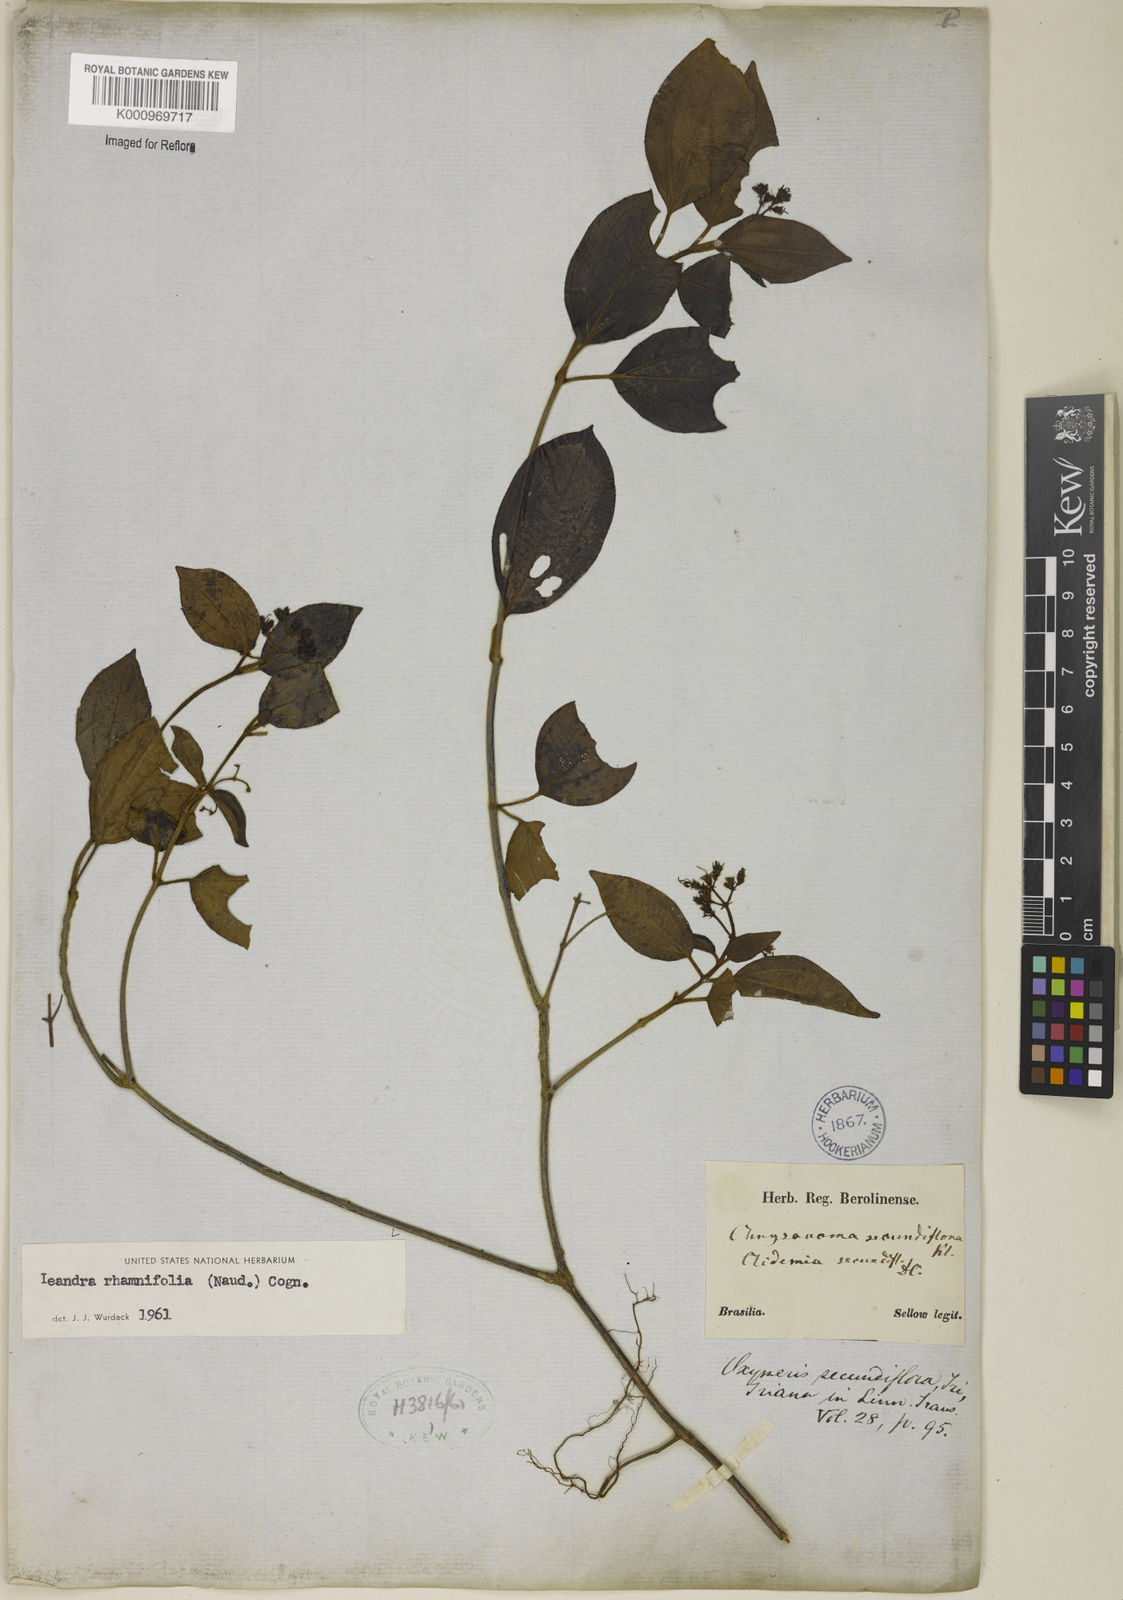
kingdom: Plantae
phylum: Tracheophyta
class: Magnoliopsida
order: Myrtales
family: Melastomataceae
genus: Miconia
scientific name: Miconia rhamnifolia
